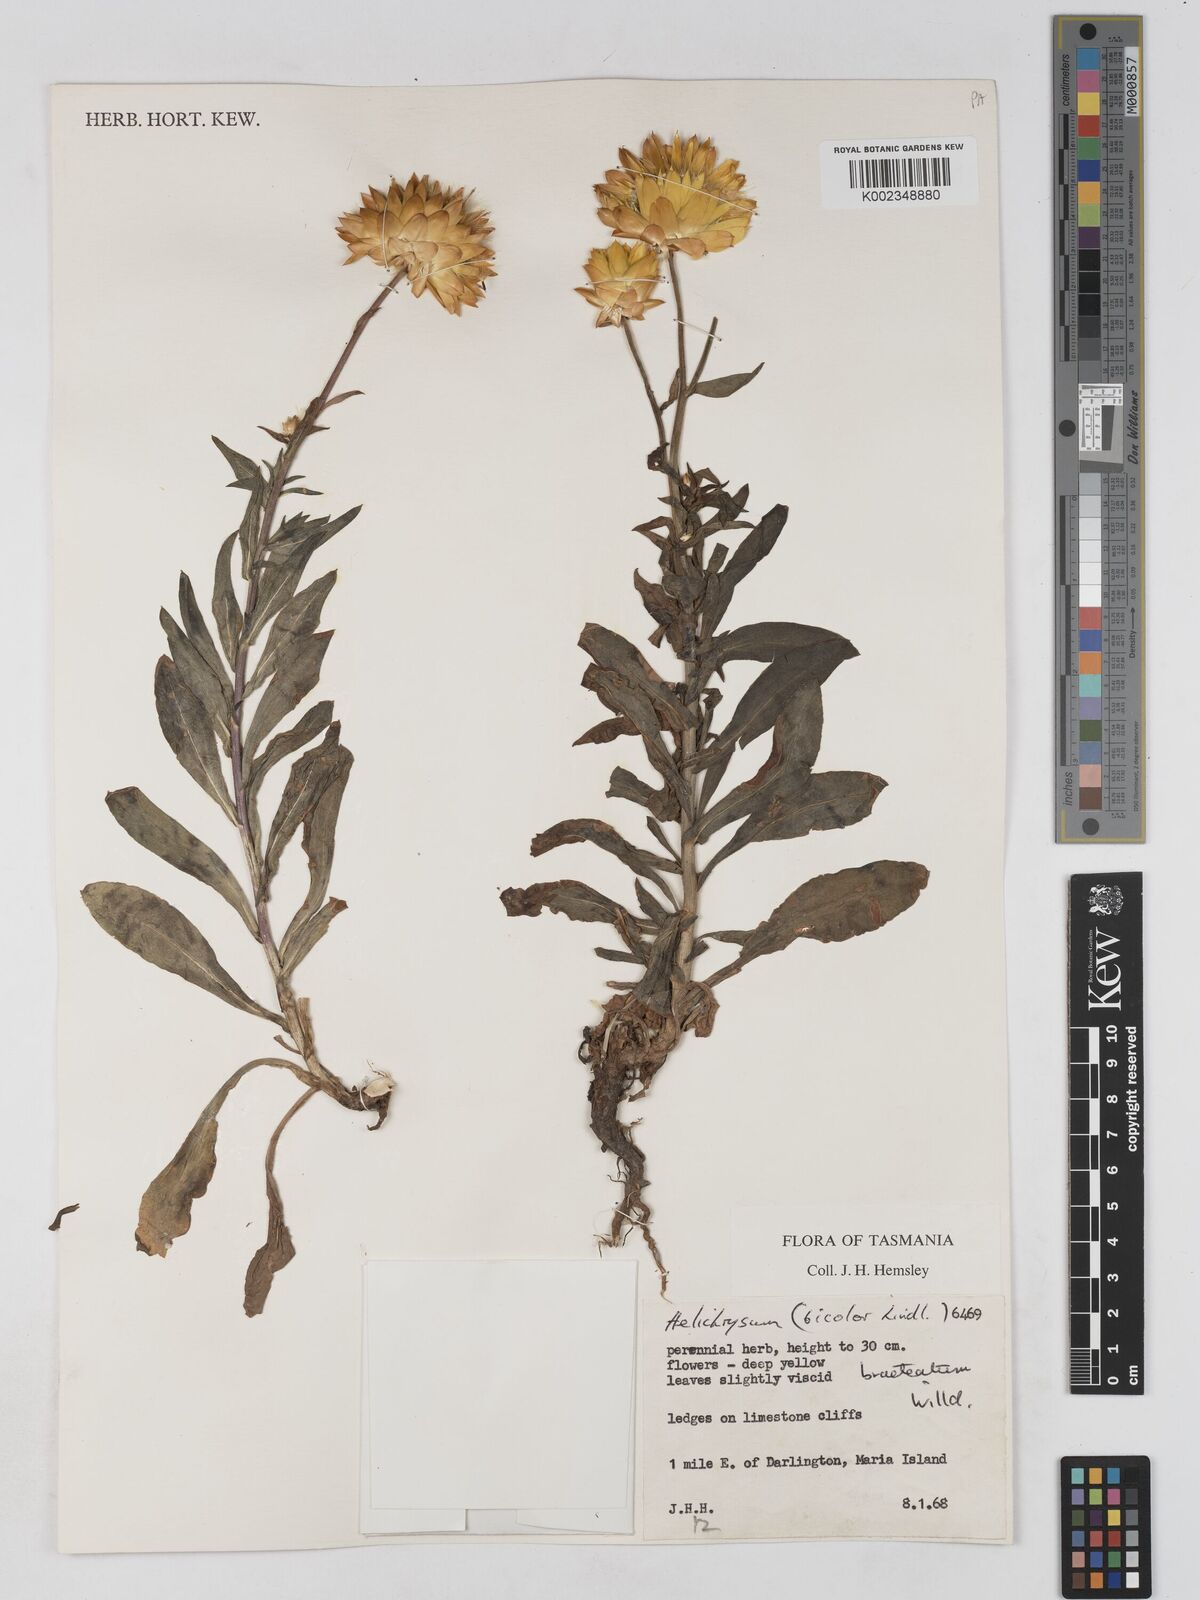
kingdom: Plantae
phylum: Tracheophyta
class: Magnoliopsida
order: Asterales
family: Asteraceae
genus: Xerochrysum
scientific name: Xerochrysum bracteatum
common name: Bracted strawflower
